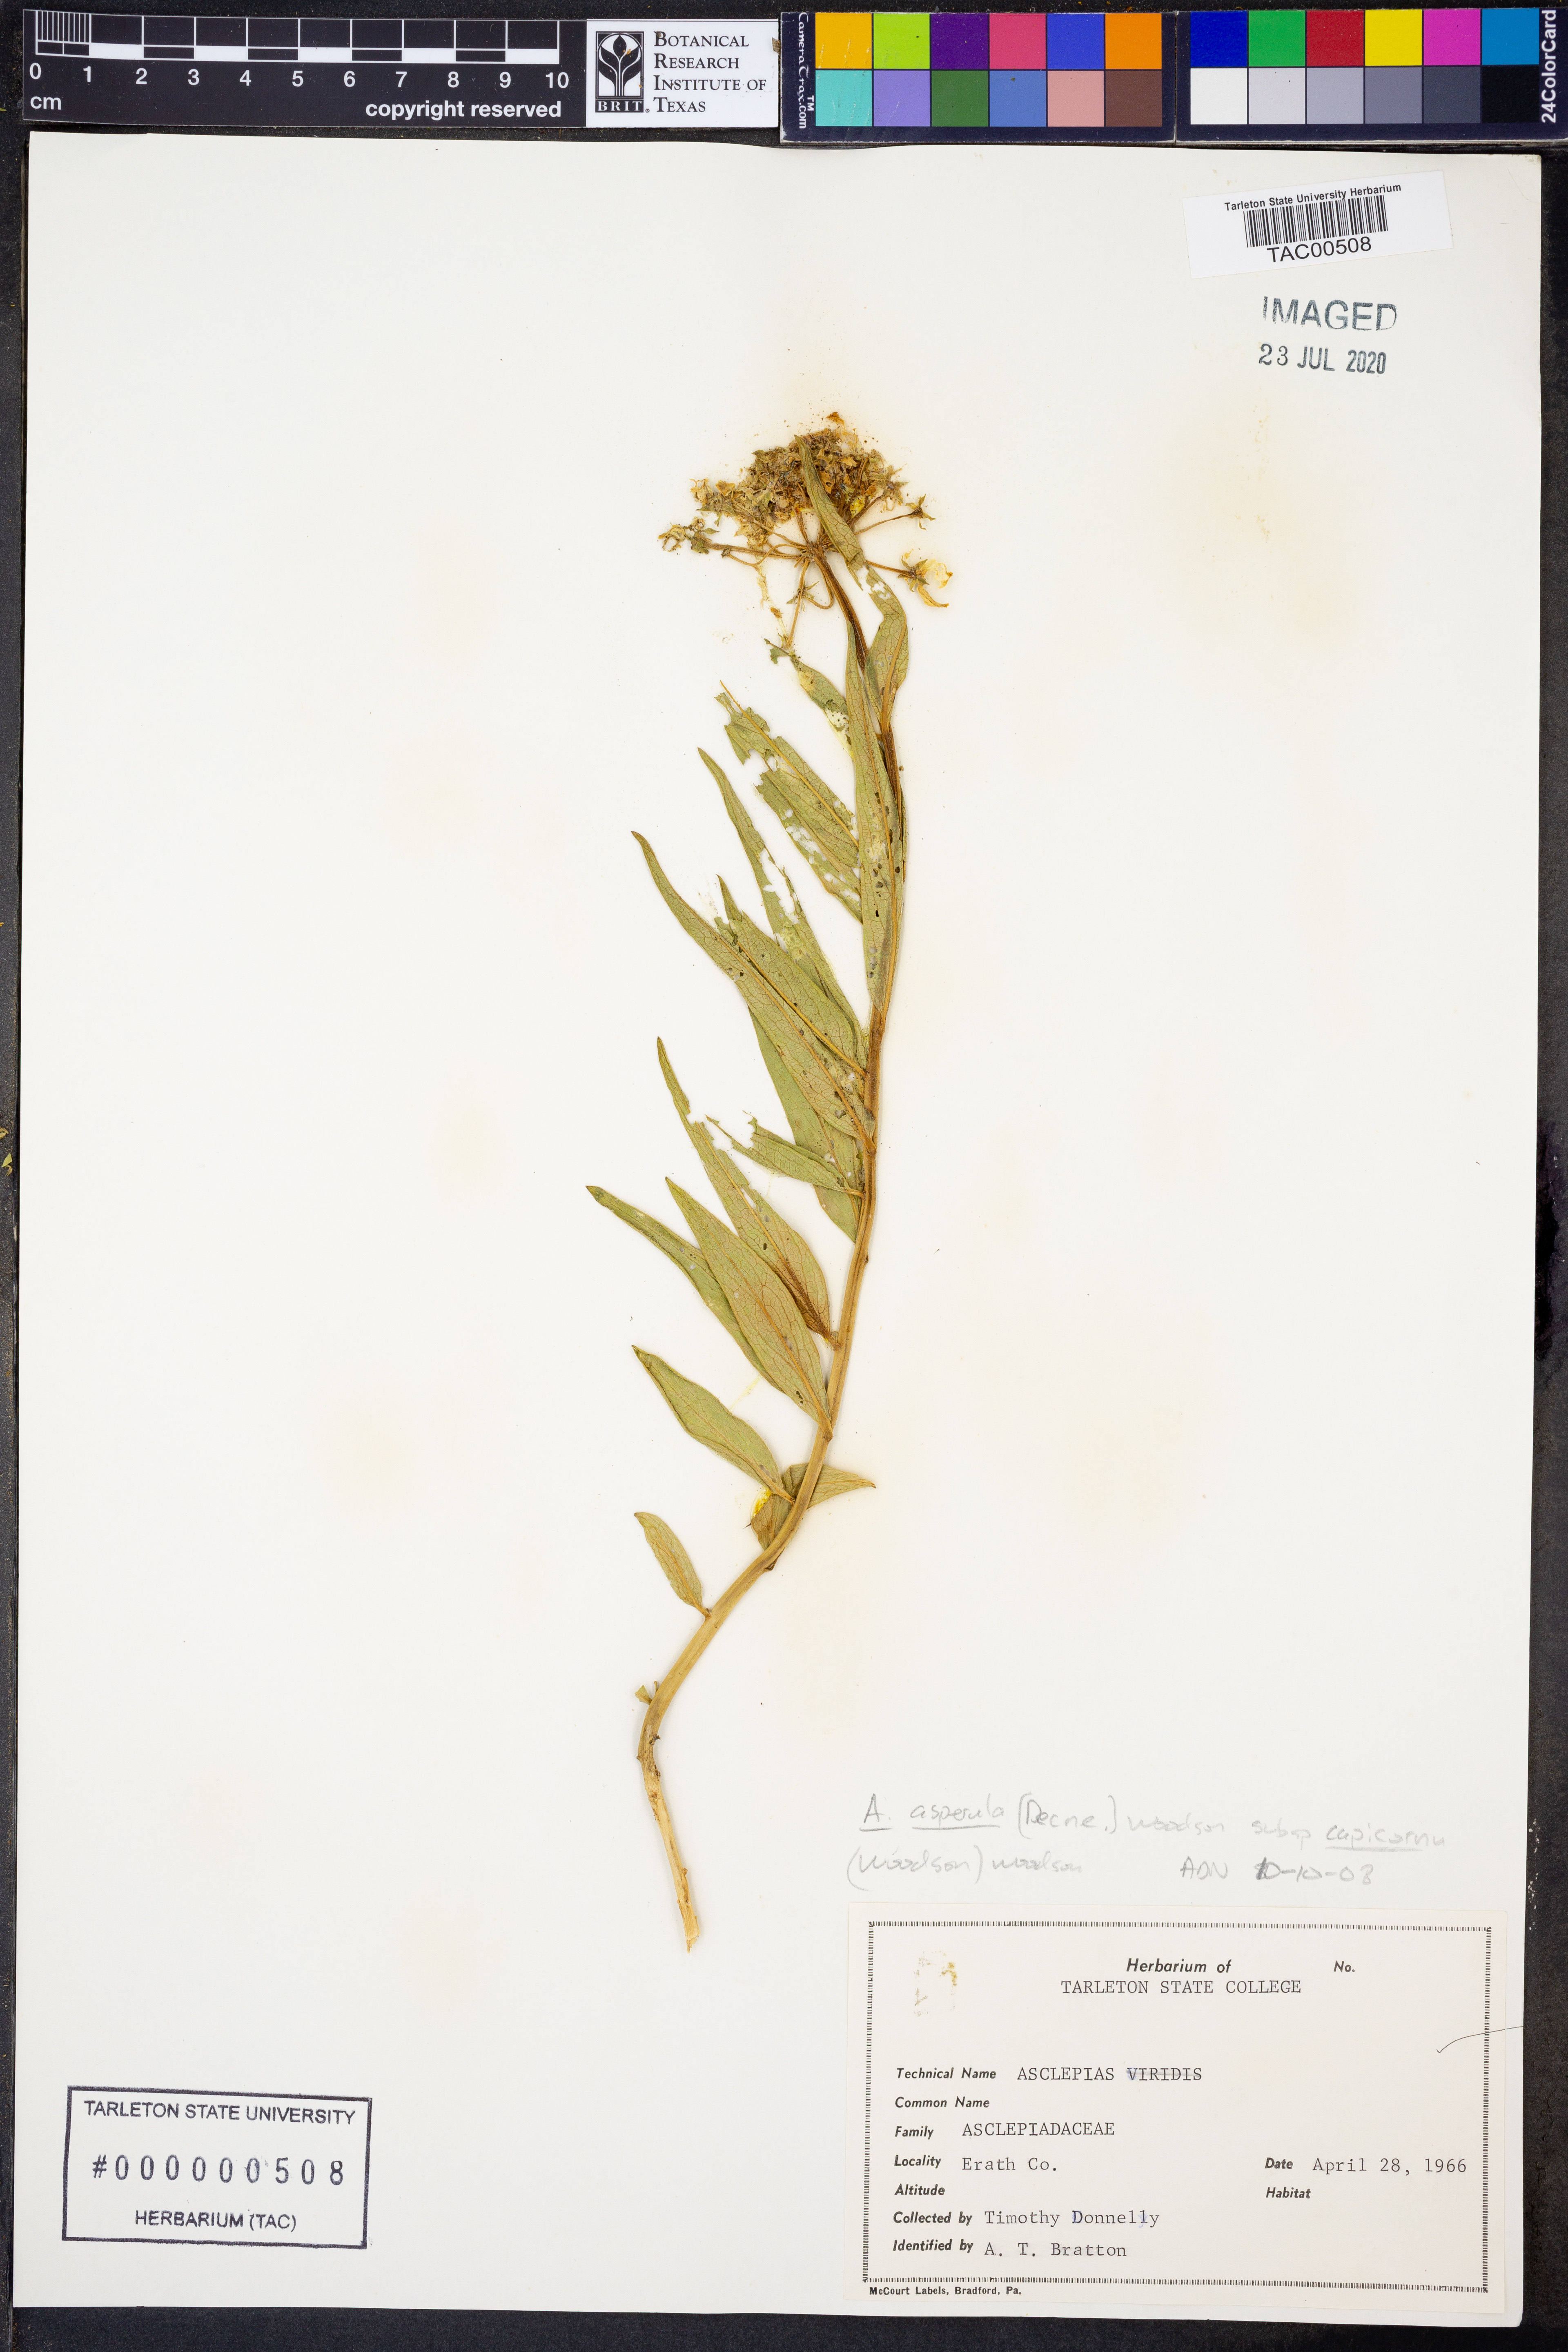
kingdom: Plantae
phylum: Tracheophyta
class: Magnoliopsida
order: Gentianales
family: Apocynaceae
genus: Asclepias
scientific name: Asclepias asperula
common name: Antelope horns
